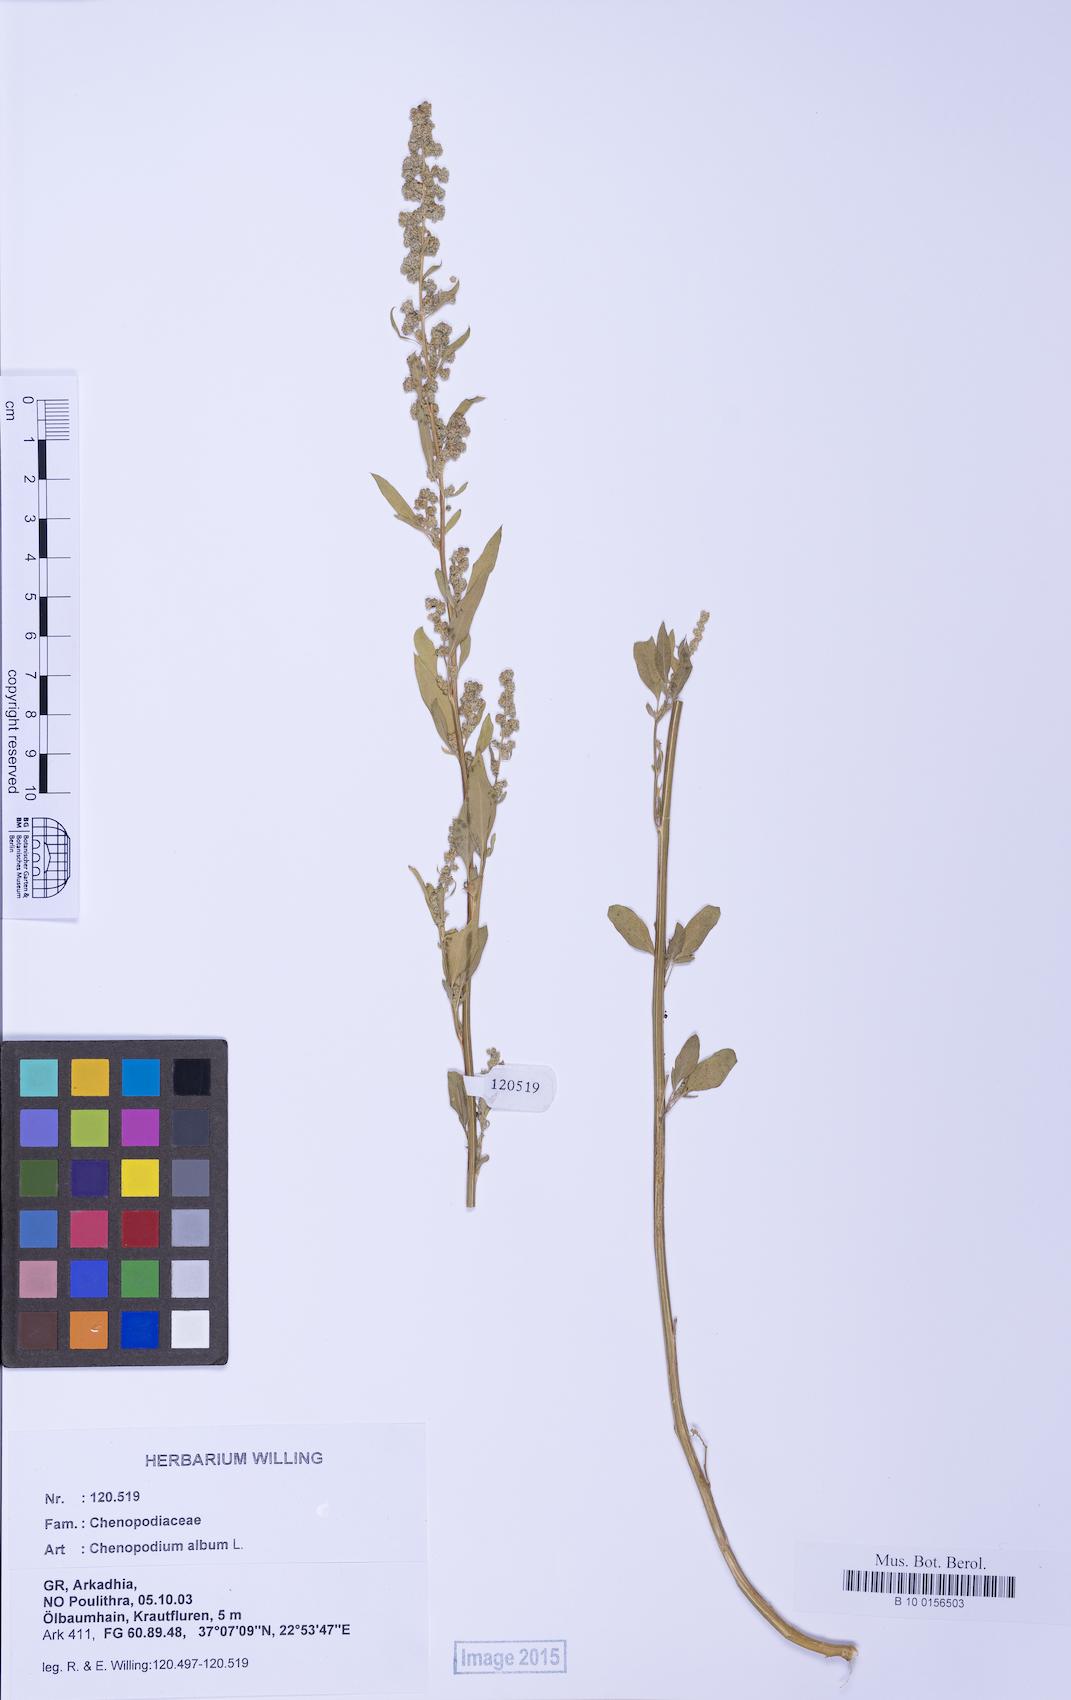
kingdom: Plantae
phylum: Tracheophyta
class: Magnoliopsida
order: Caryophyllales
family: Amaranthaceae
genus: Chenopodium
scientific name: Chenopodium album
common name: Fat-hen
